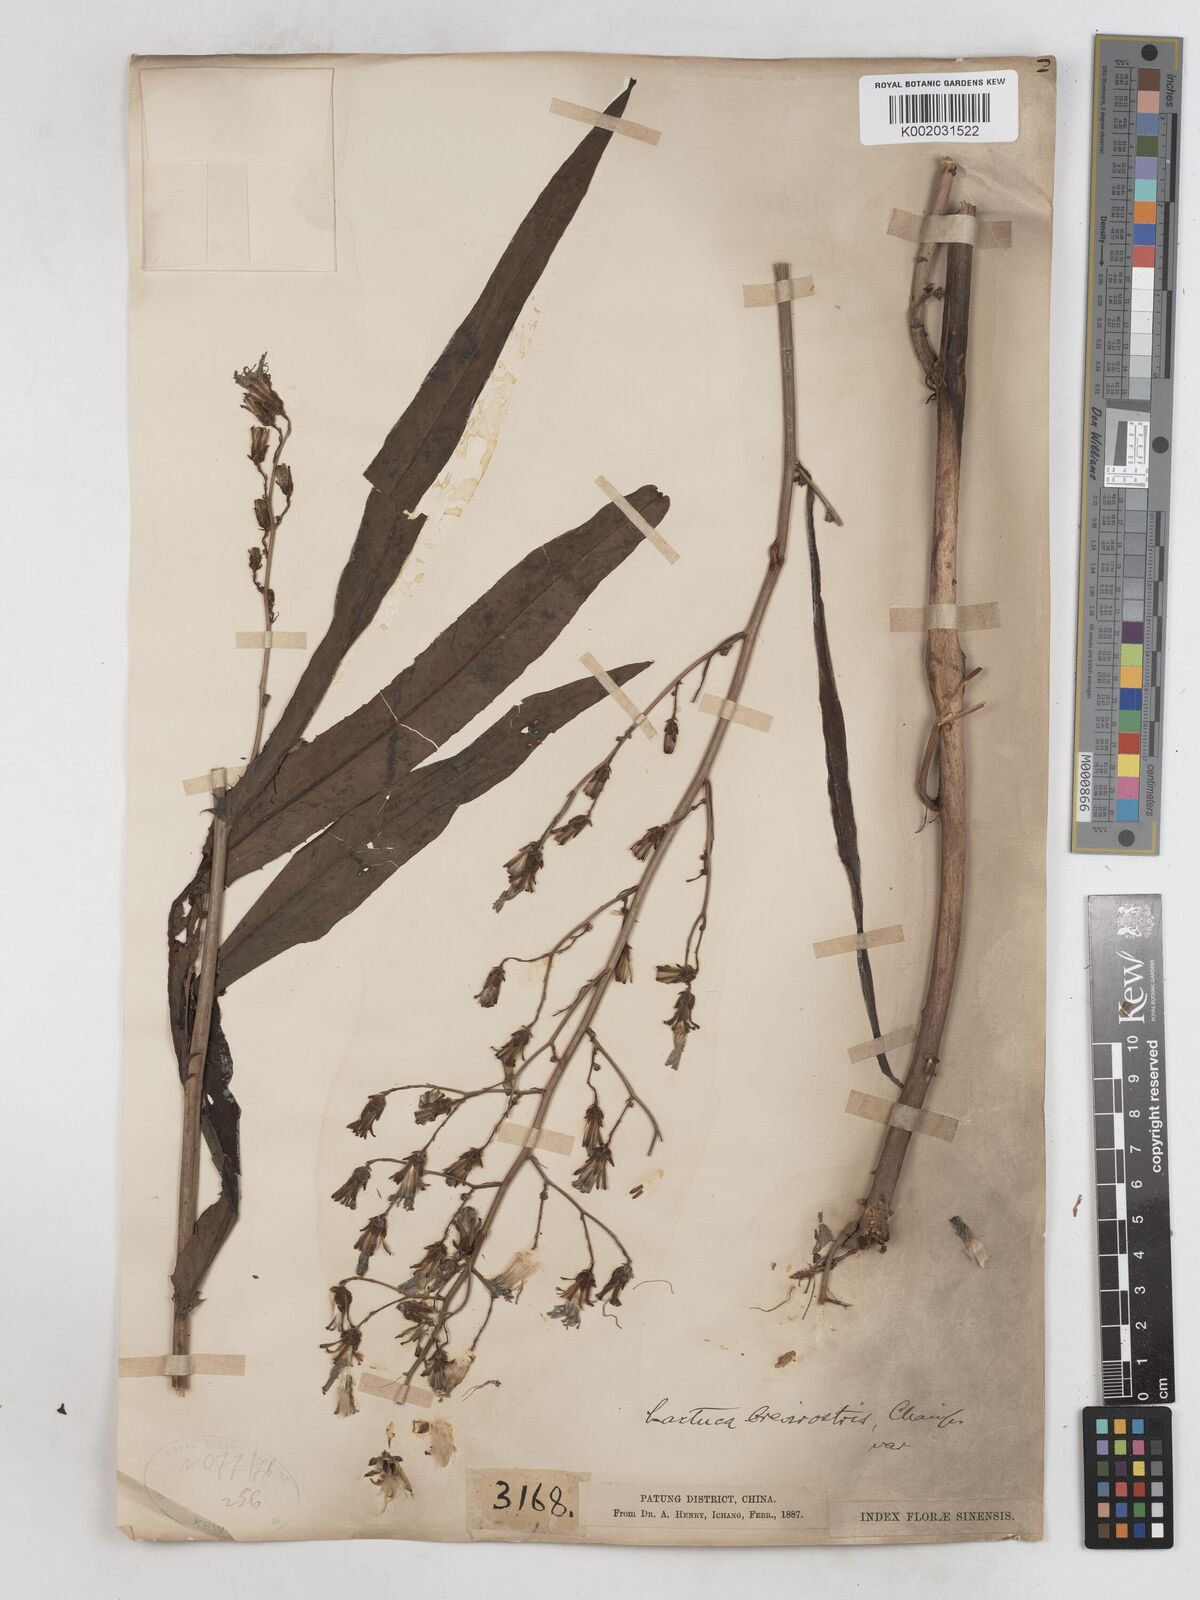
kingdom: Plantae
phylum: Tracheophyta
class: Magnoliopsida
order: Asterales
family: Asteraceae
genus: Lactuca
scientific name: Lactuca indica
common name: Wild lettuce
